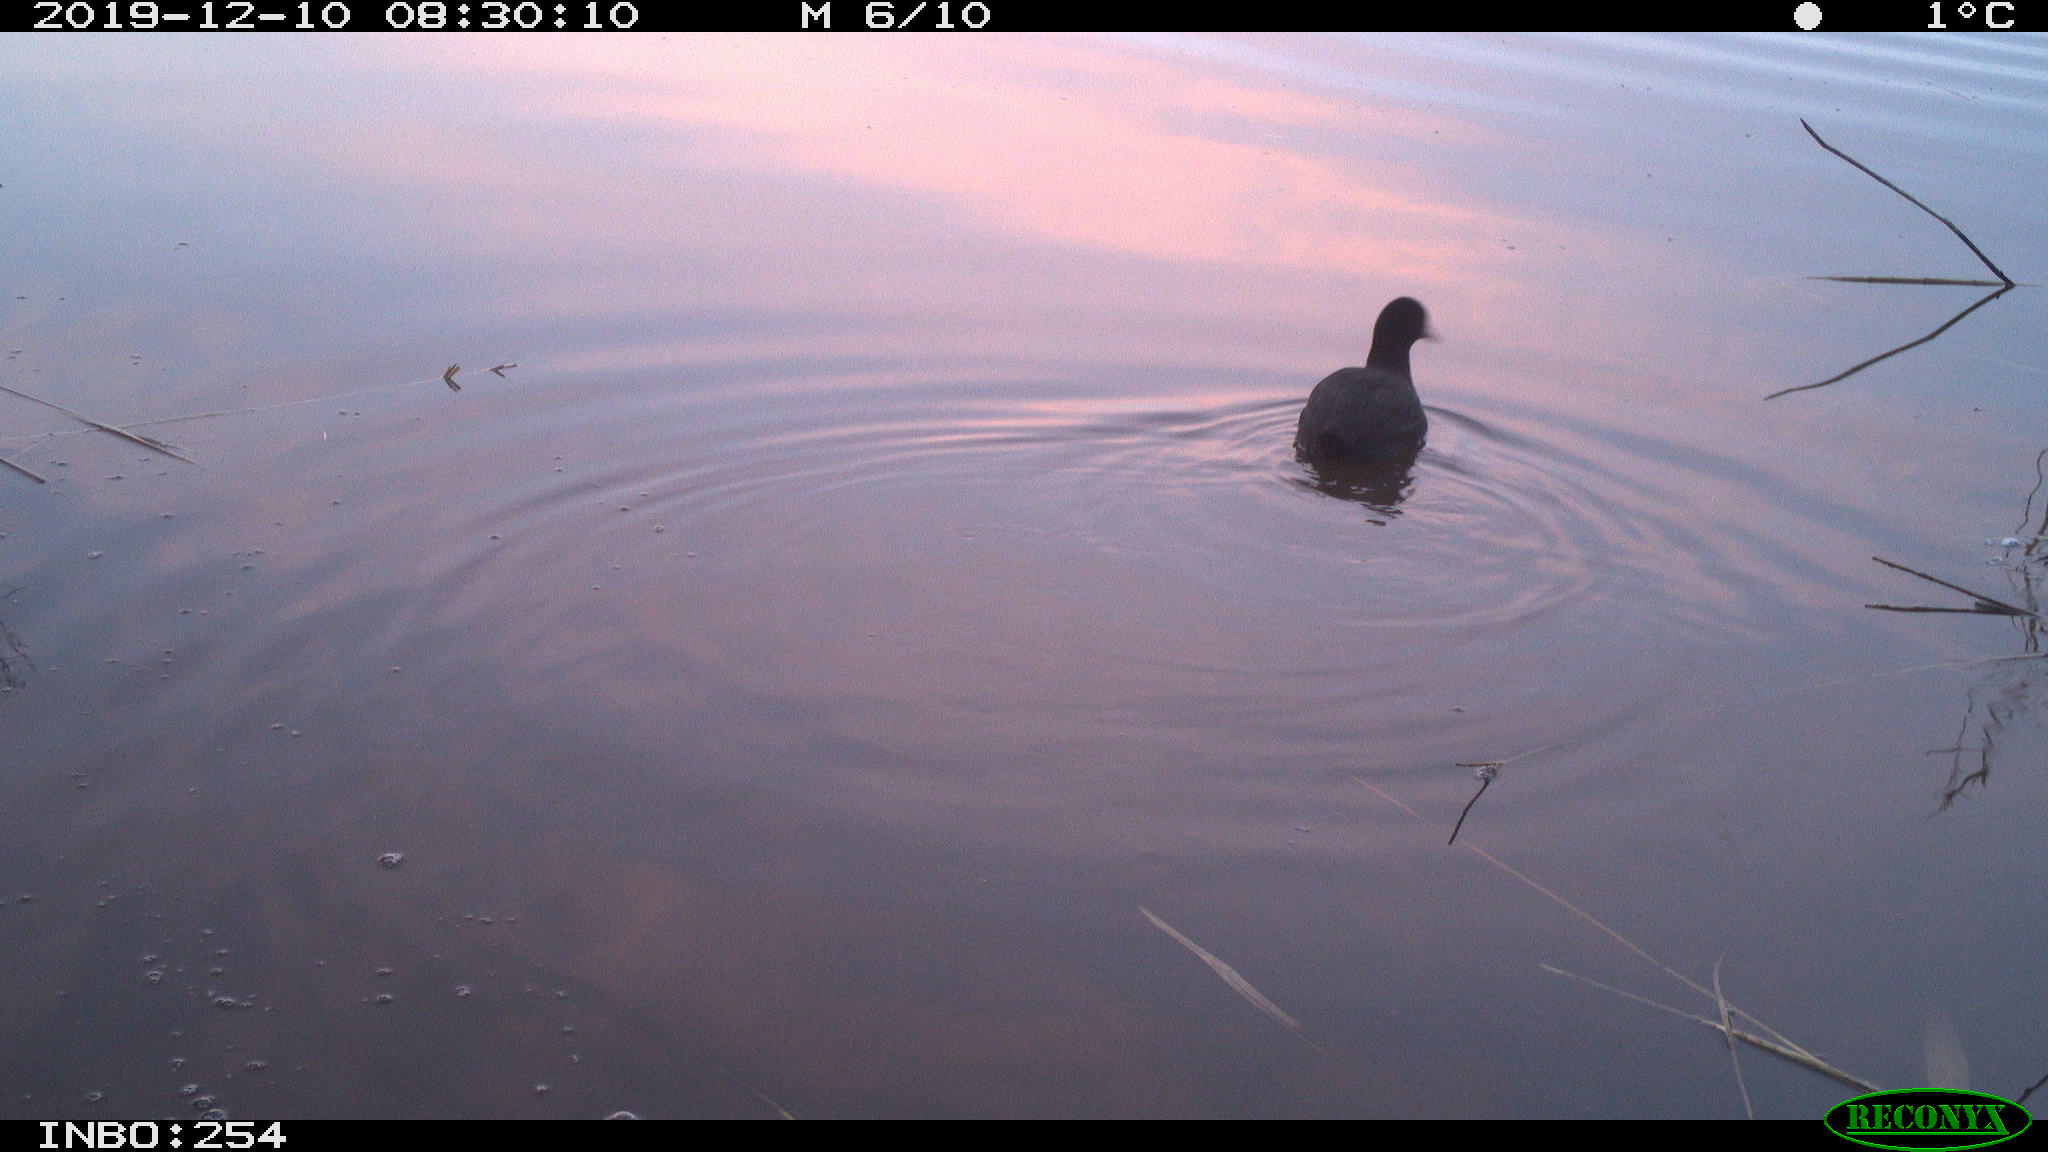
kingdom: Animalia
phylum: Chordata
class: Aves
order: Gruiformes
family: Rallidae
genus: Fulica
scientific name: Fulica atra
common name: Eurasian coot
